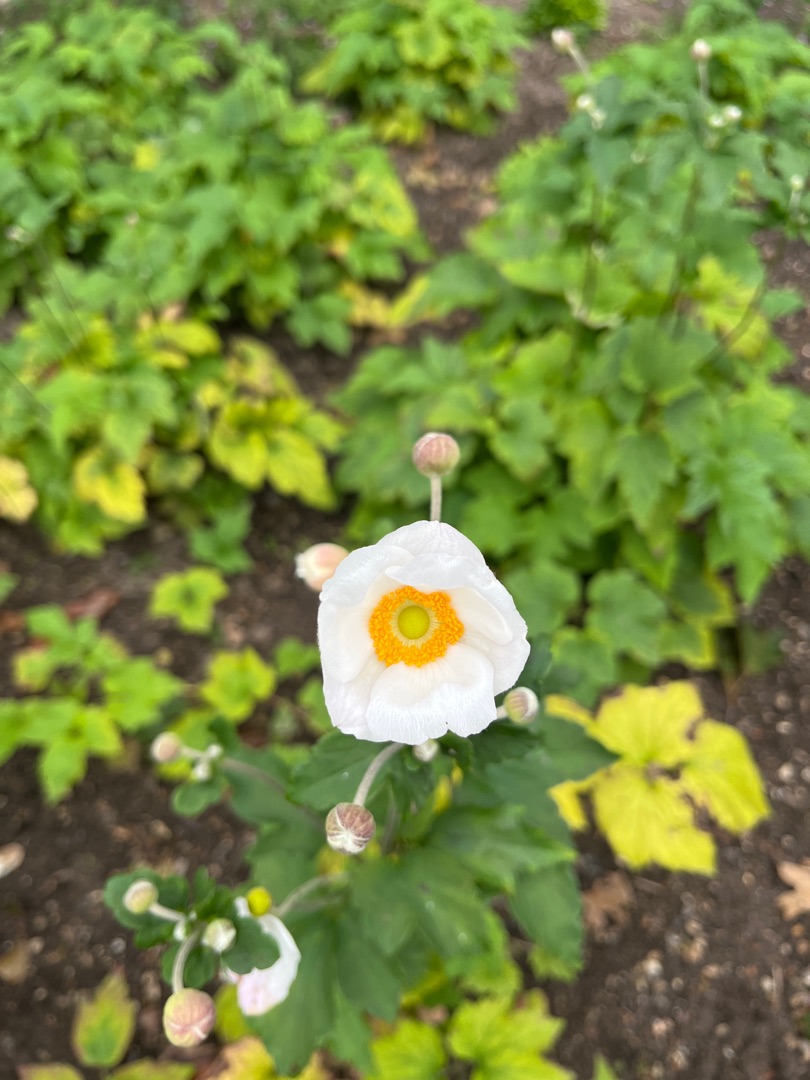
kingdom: Plantae
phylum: Tracheophyta
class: Magnoliopsida
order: Ranunculales
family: Ranunculaceae
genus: Eriocapitella
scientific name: Eriocapitella hupehensis
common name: Høst-anemone
